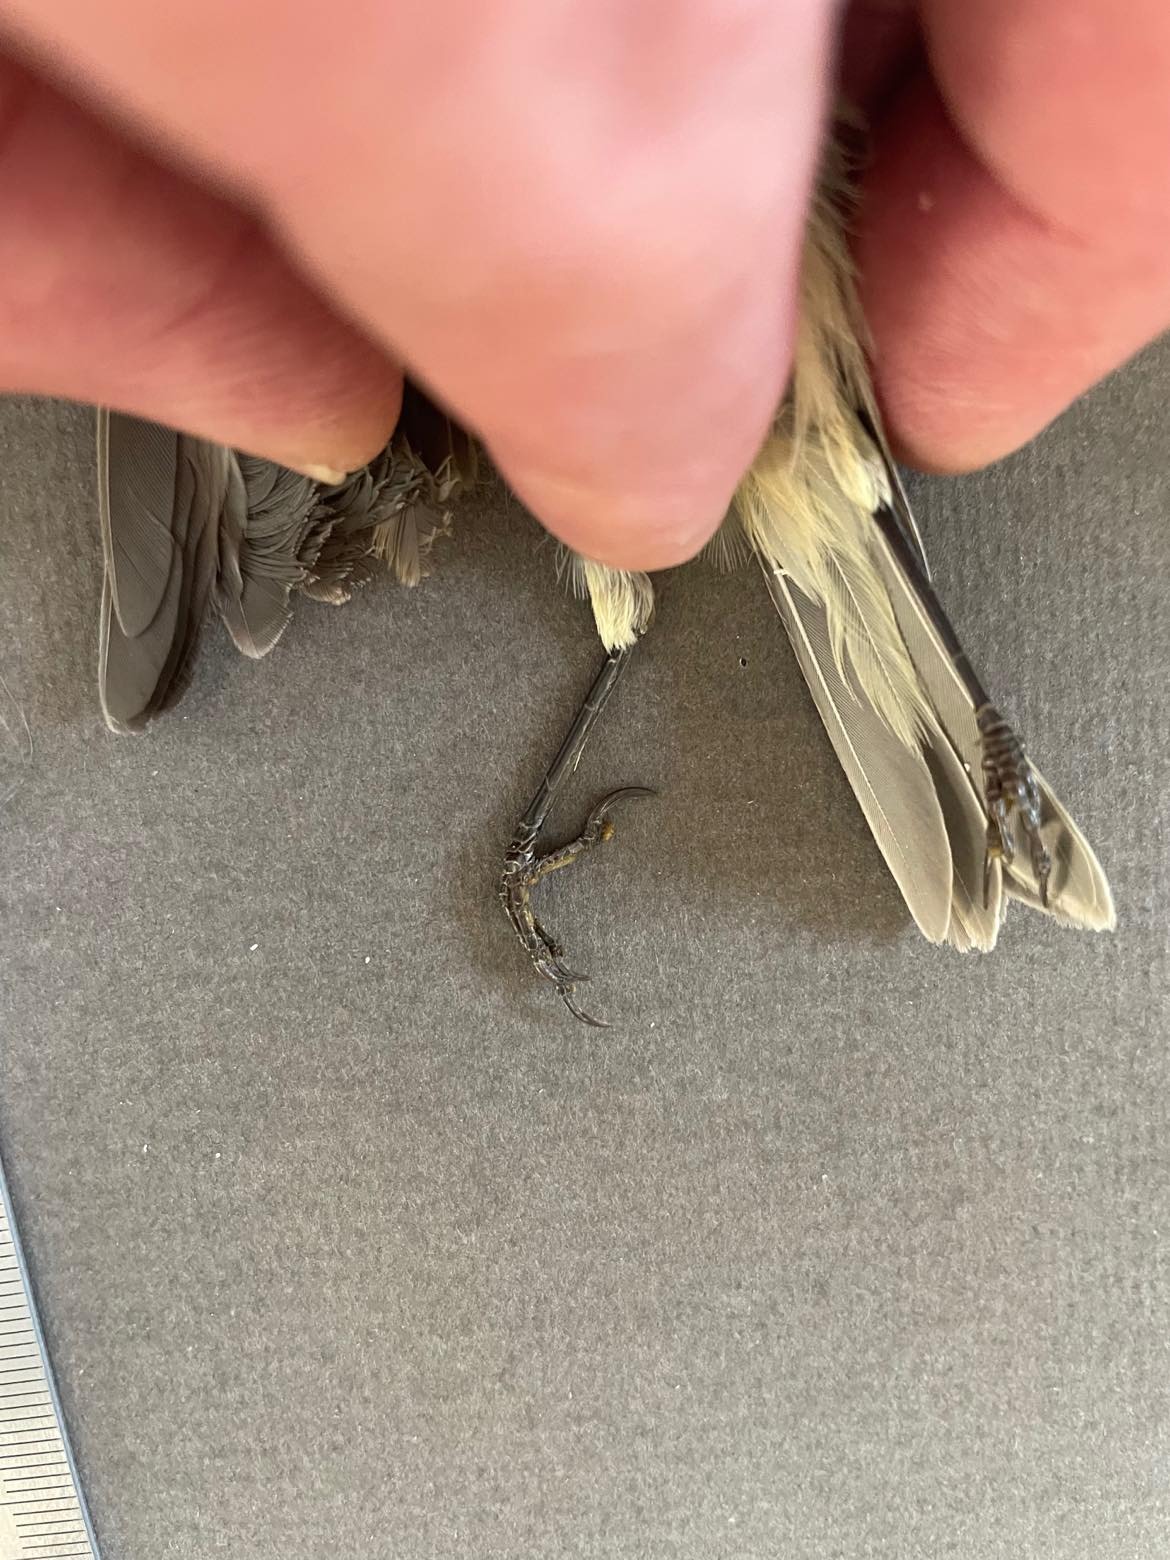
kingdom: Animalia
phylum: Chordata
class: Aves
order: Passeriformes
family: Phylloscopidae
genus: Phylloscopus
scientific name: Phylloscopus collybita
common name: Common chiffchaff
